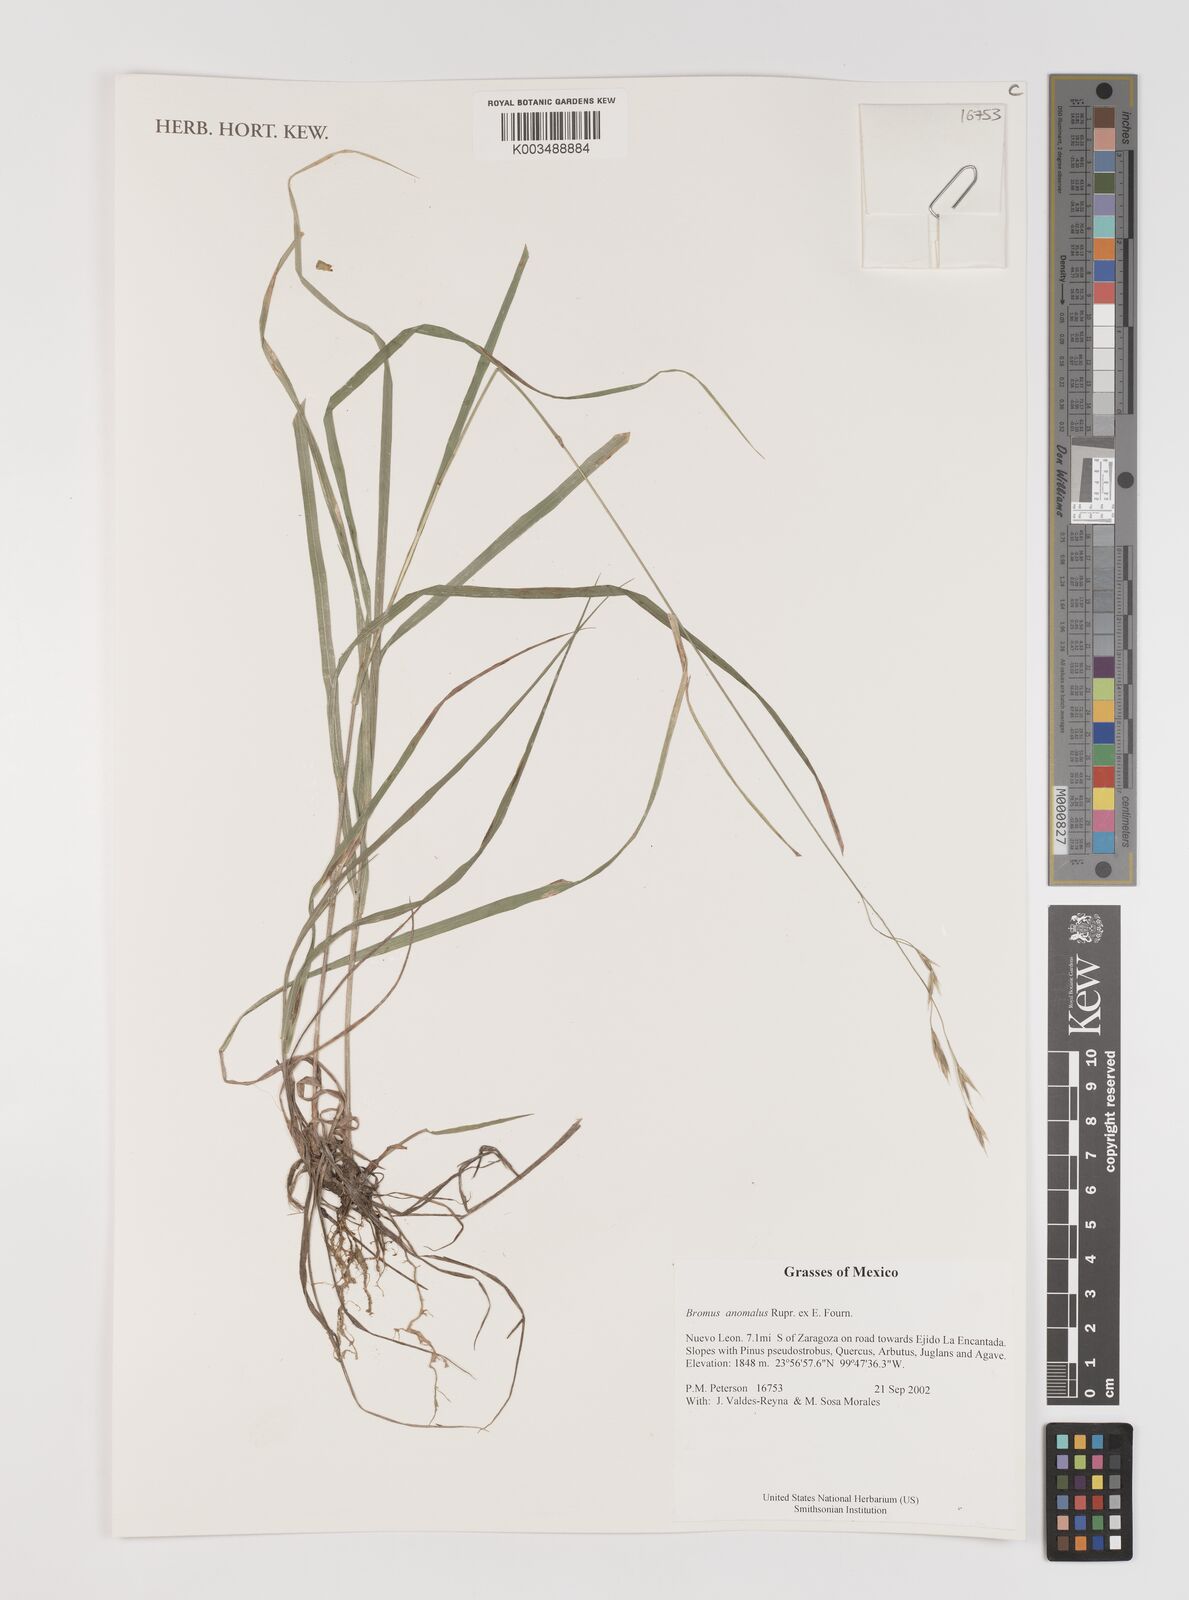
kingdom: Plantae
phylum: Tracheophyta
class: Liliopsida
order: Poales
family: Poaceae
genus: Bromus
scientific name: Bromus anomalus
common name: Nodding brome
